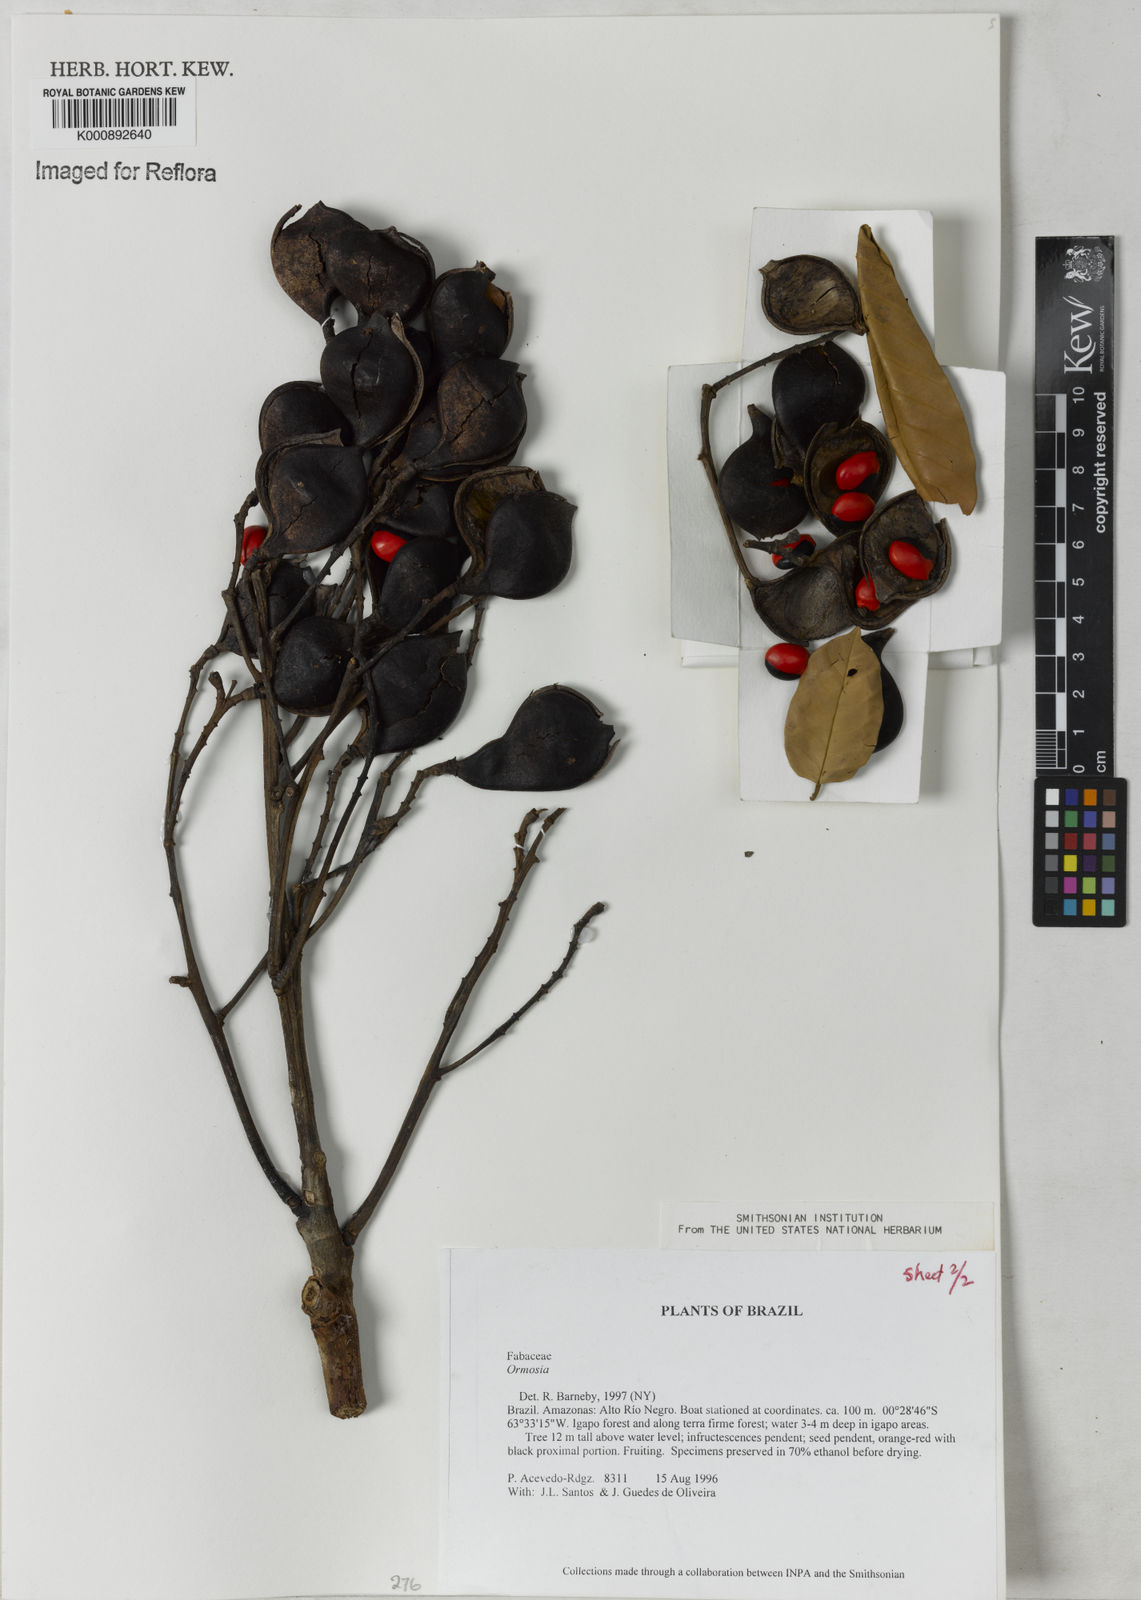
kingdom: Plantae
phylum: Tracheophyta
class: Magnoliopsida
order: Fabales
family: Fabaceae
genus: Ormosia
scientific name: Ormosia
